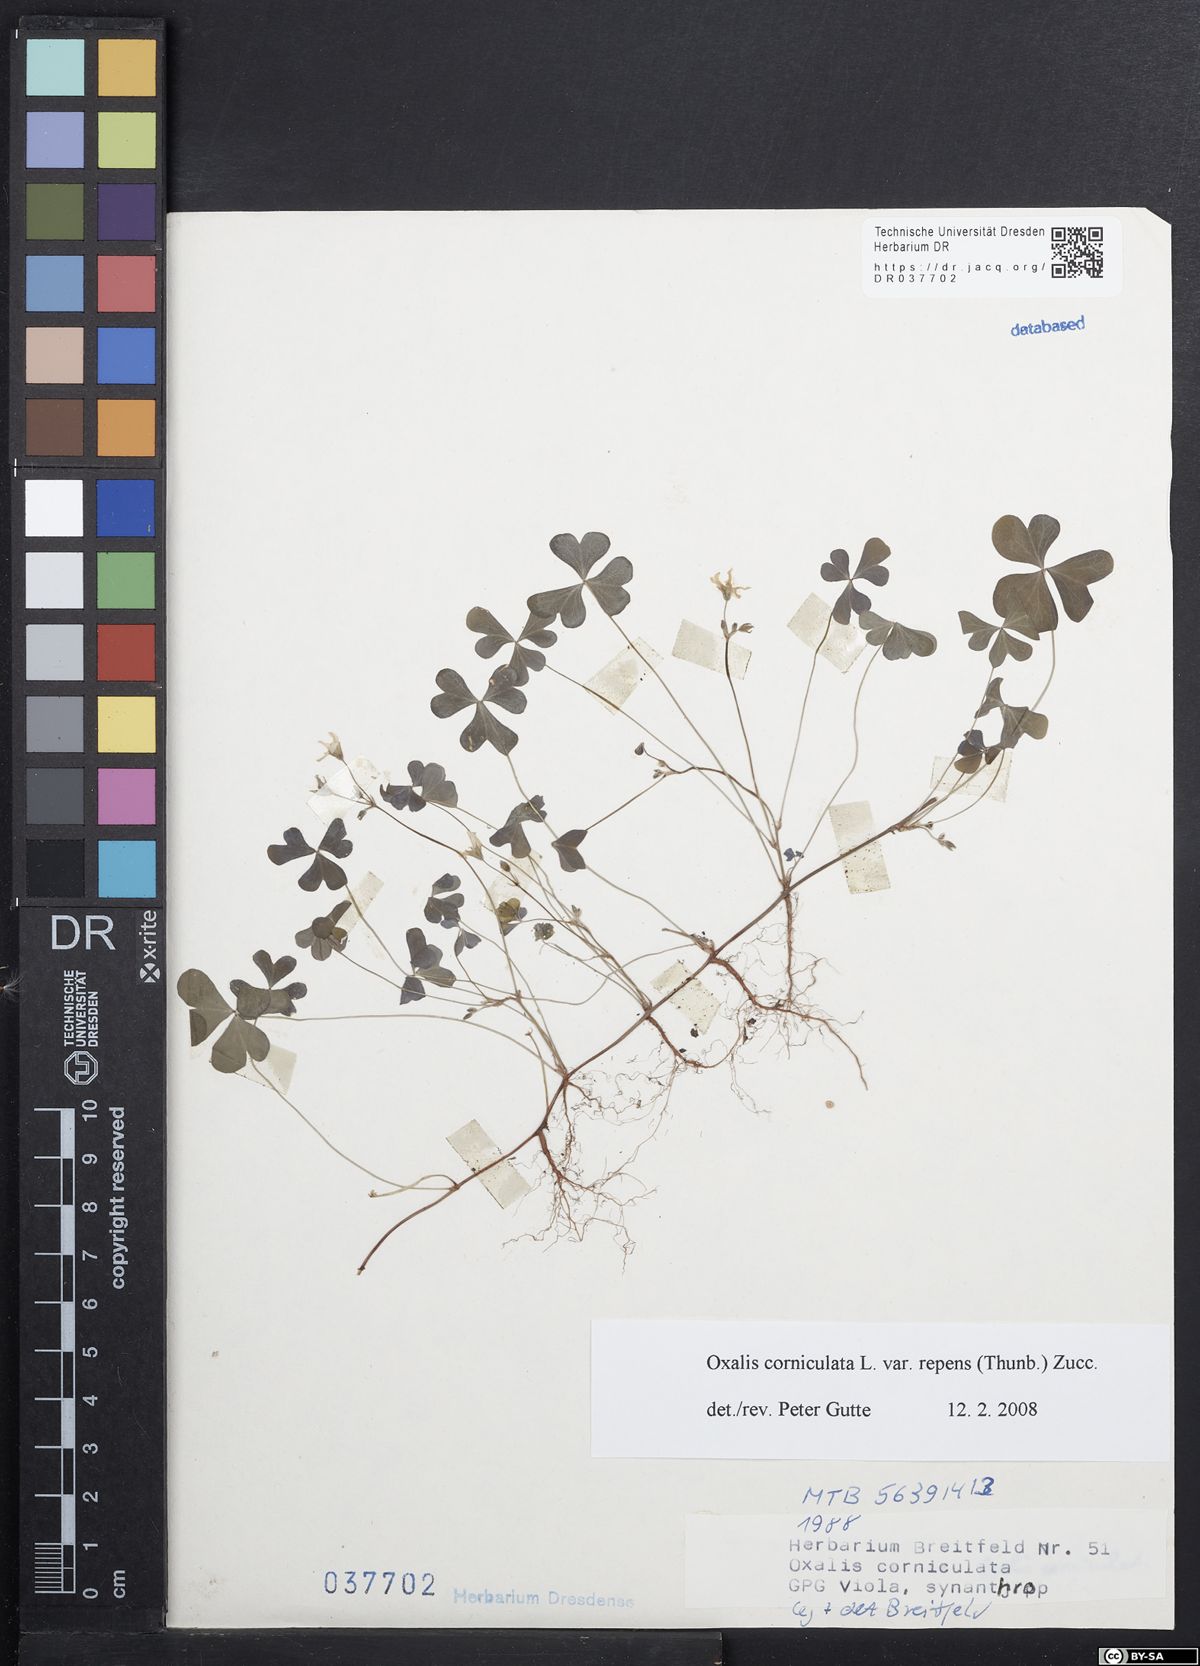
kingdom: Plantae
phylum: Tracheophyta
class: Magnoliopsida
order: Oxalidales
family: Oxalidaceae
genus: Oxalis
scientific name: Oxalis corniculata
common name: Procumbent yellow-sorrel
